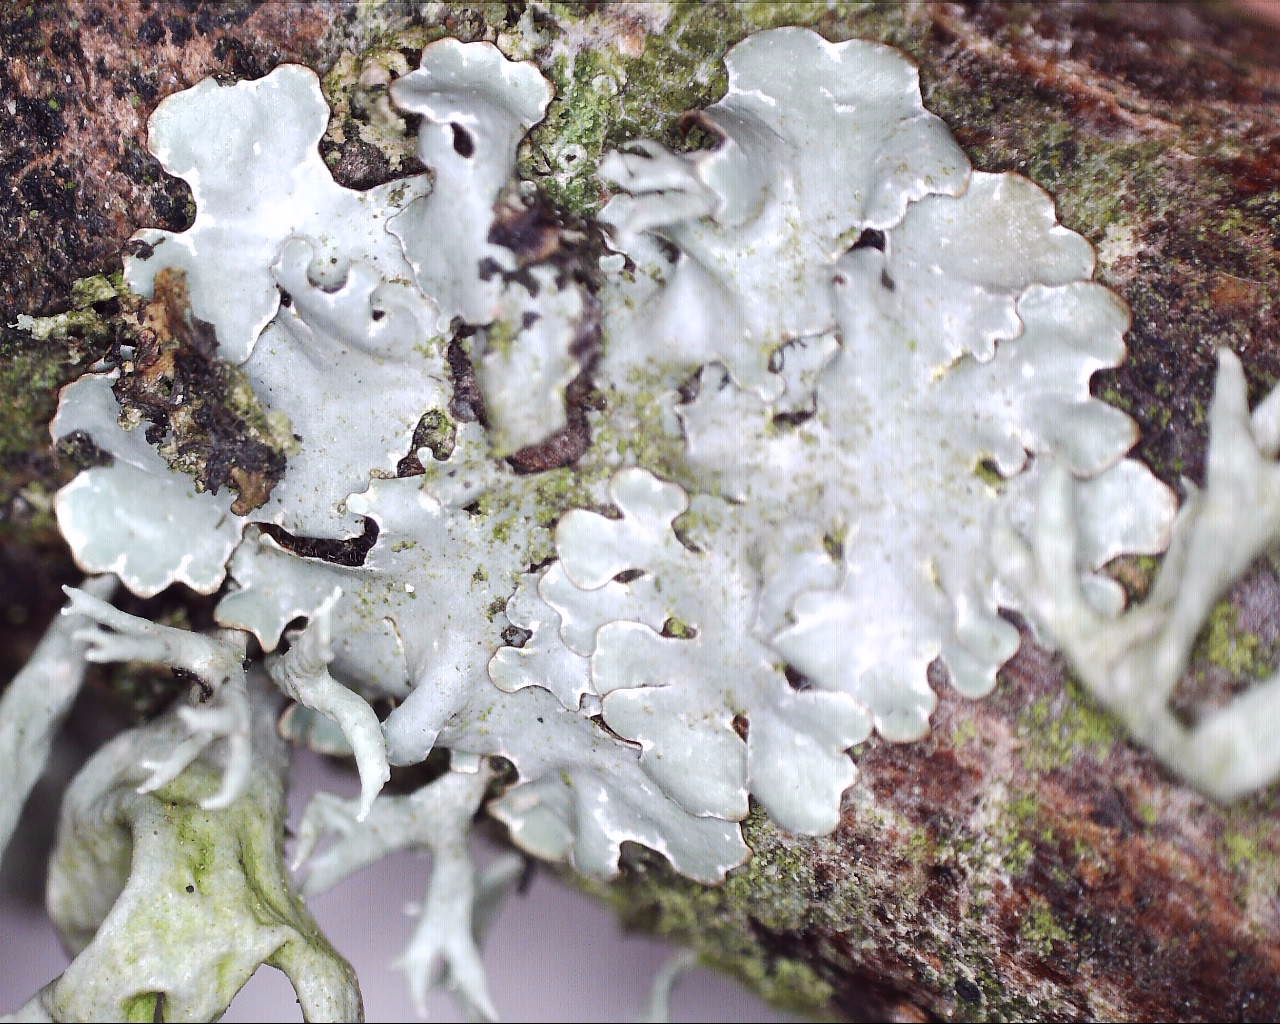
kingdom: Fungi
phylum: Ascomycota
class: Lecanoromycetes
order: Lecanorales
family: Parmeliaceae
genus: Parmelia
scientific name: Parmelia
